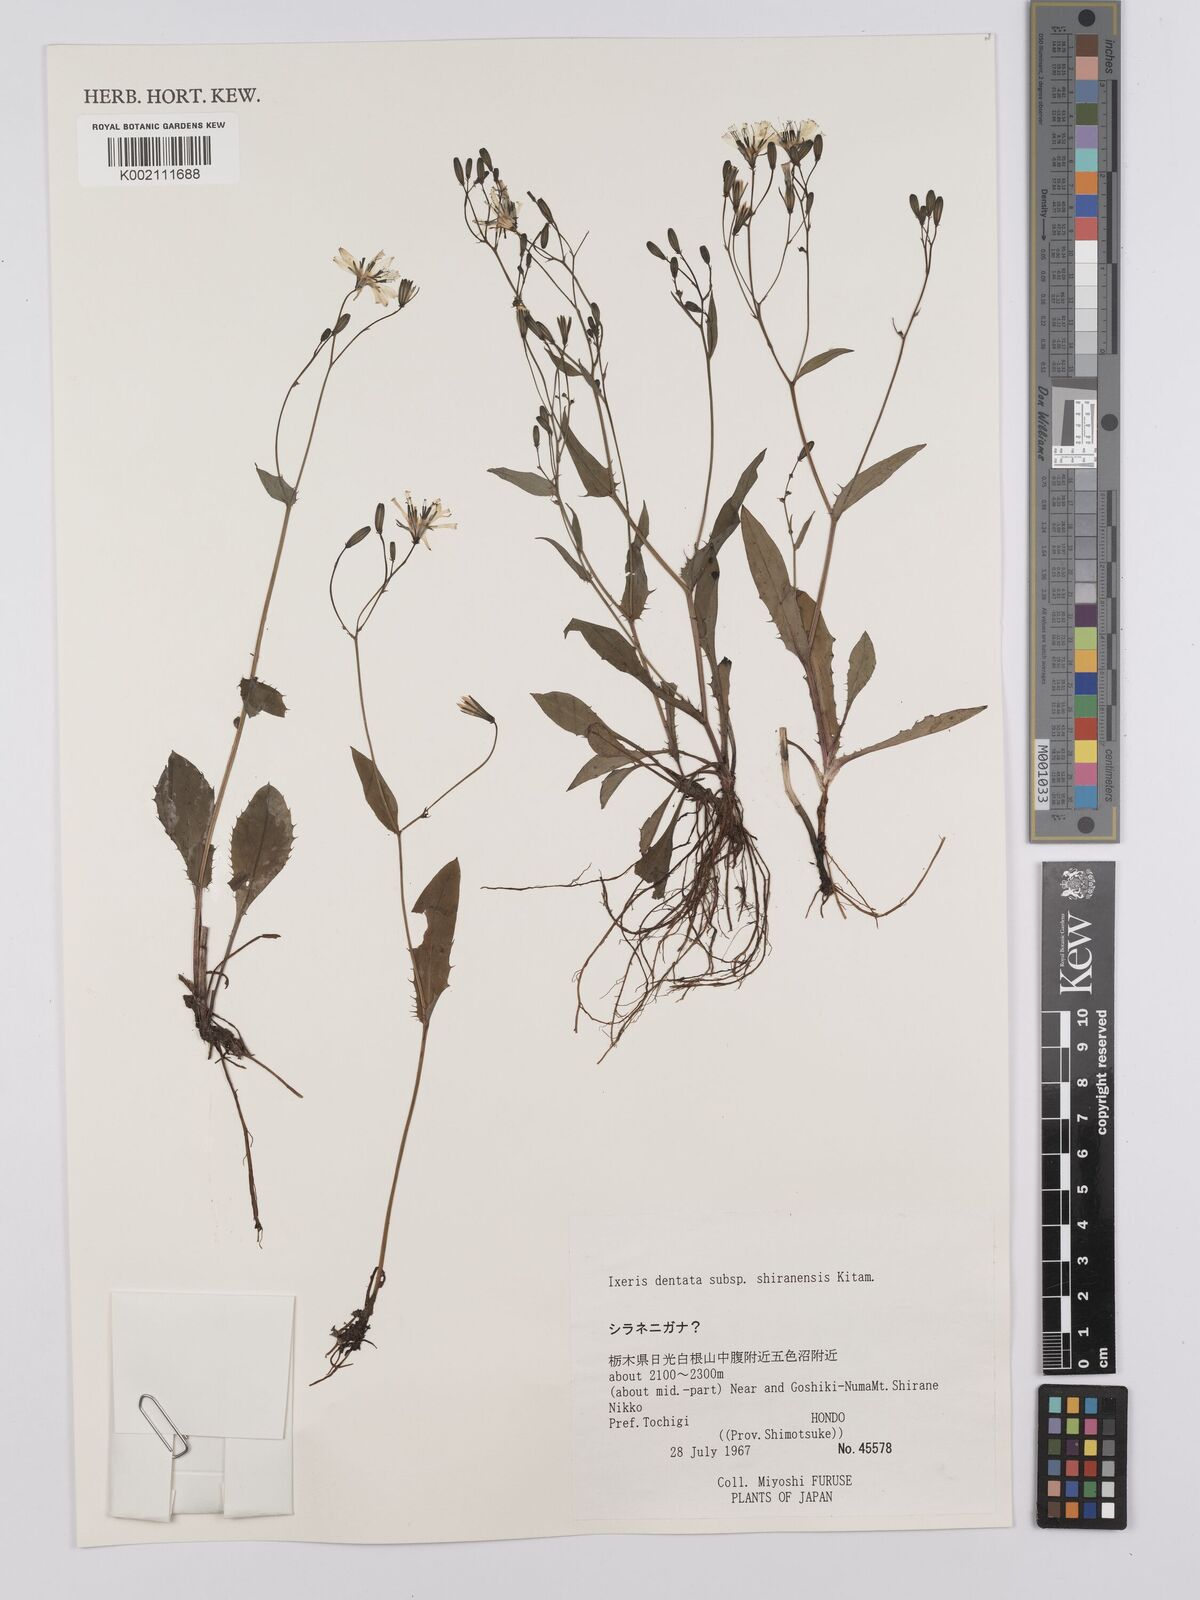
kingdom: Plantae
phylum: Tracheophyta
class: Magnoliopsida
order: Asterales
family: Asteraceae
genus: Ixeridium
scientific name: Ixeridium dentatum
